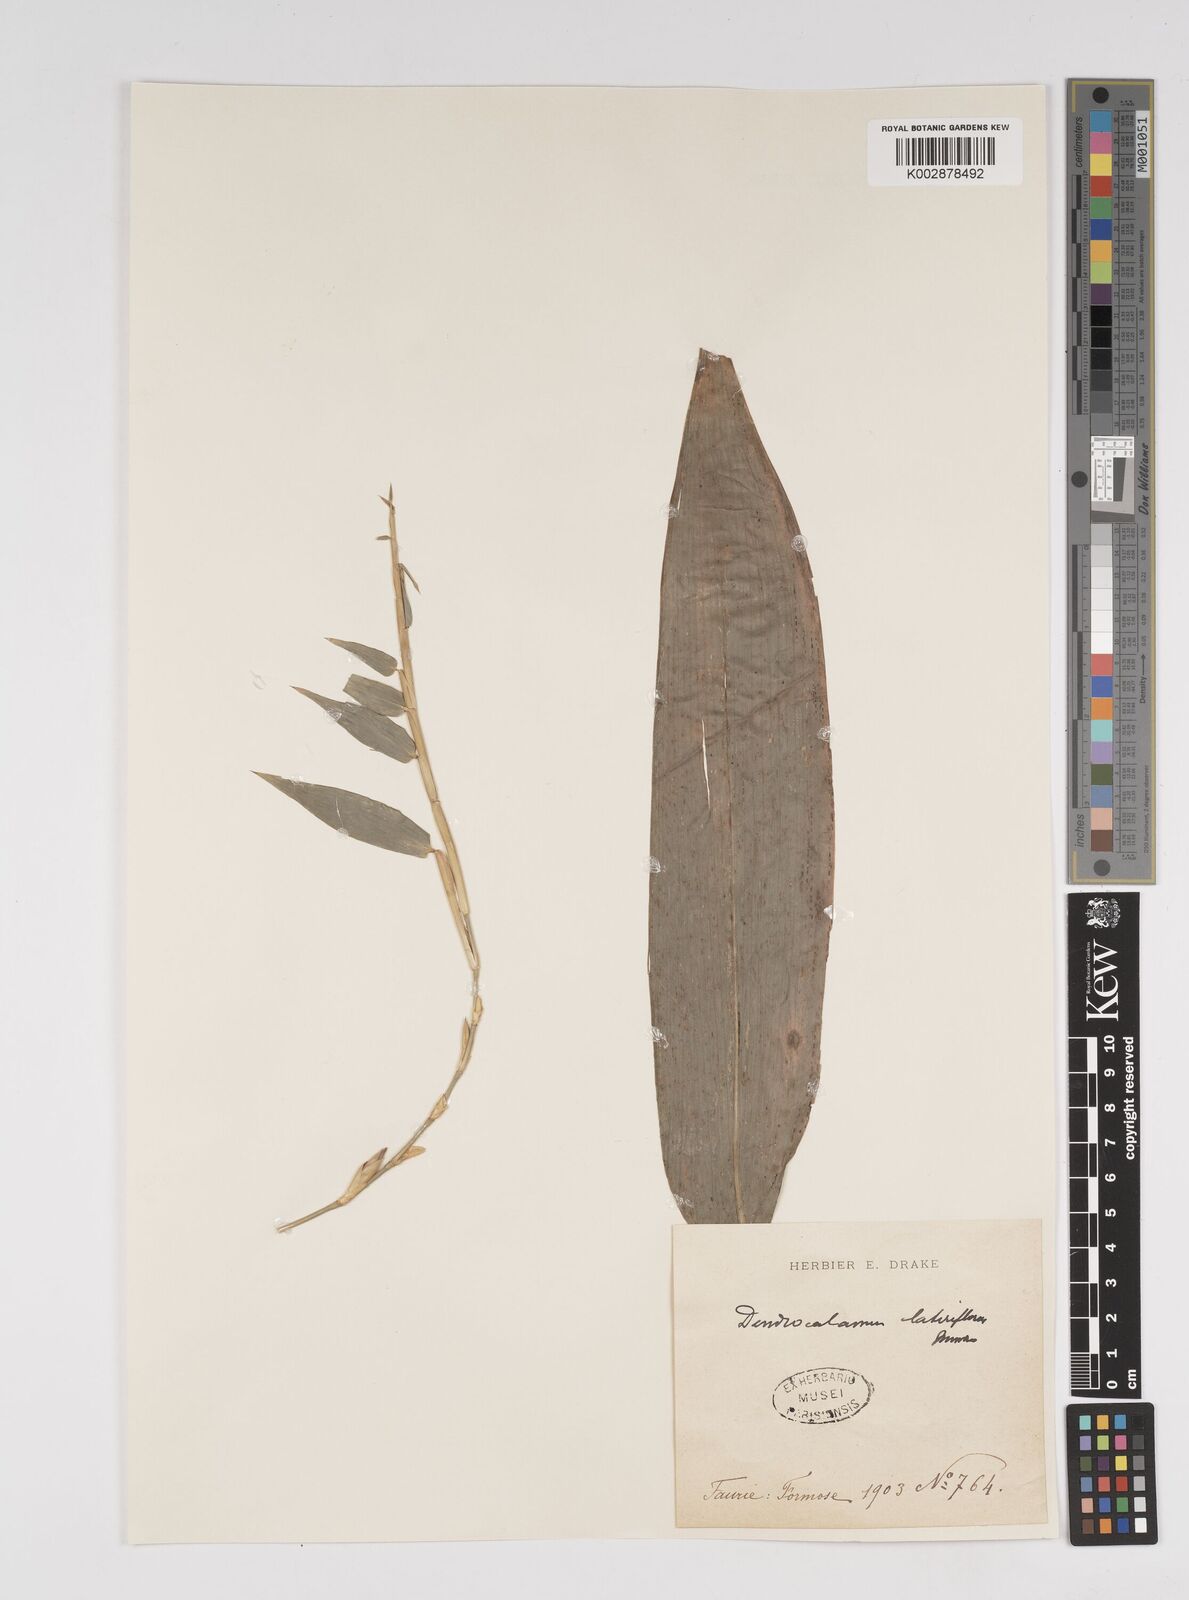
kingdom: Plantae
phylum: Tracheophyta
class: Liliopsida
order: Poales
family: Poaceae
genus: Dendrocalamus
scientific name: Dendrocalamus latiflorus
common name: Giant bamboo
